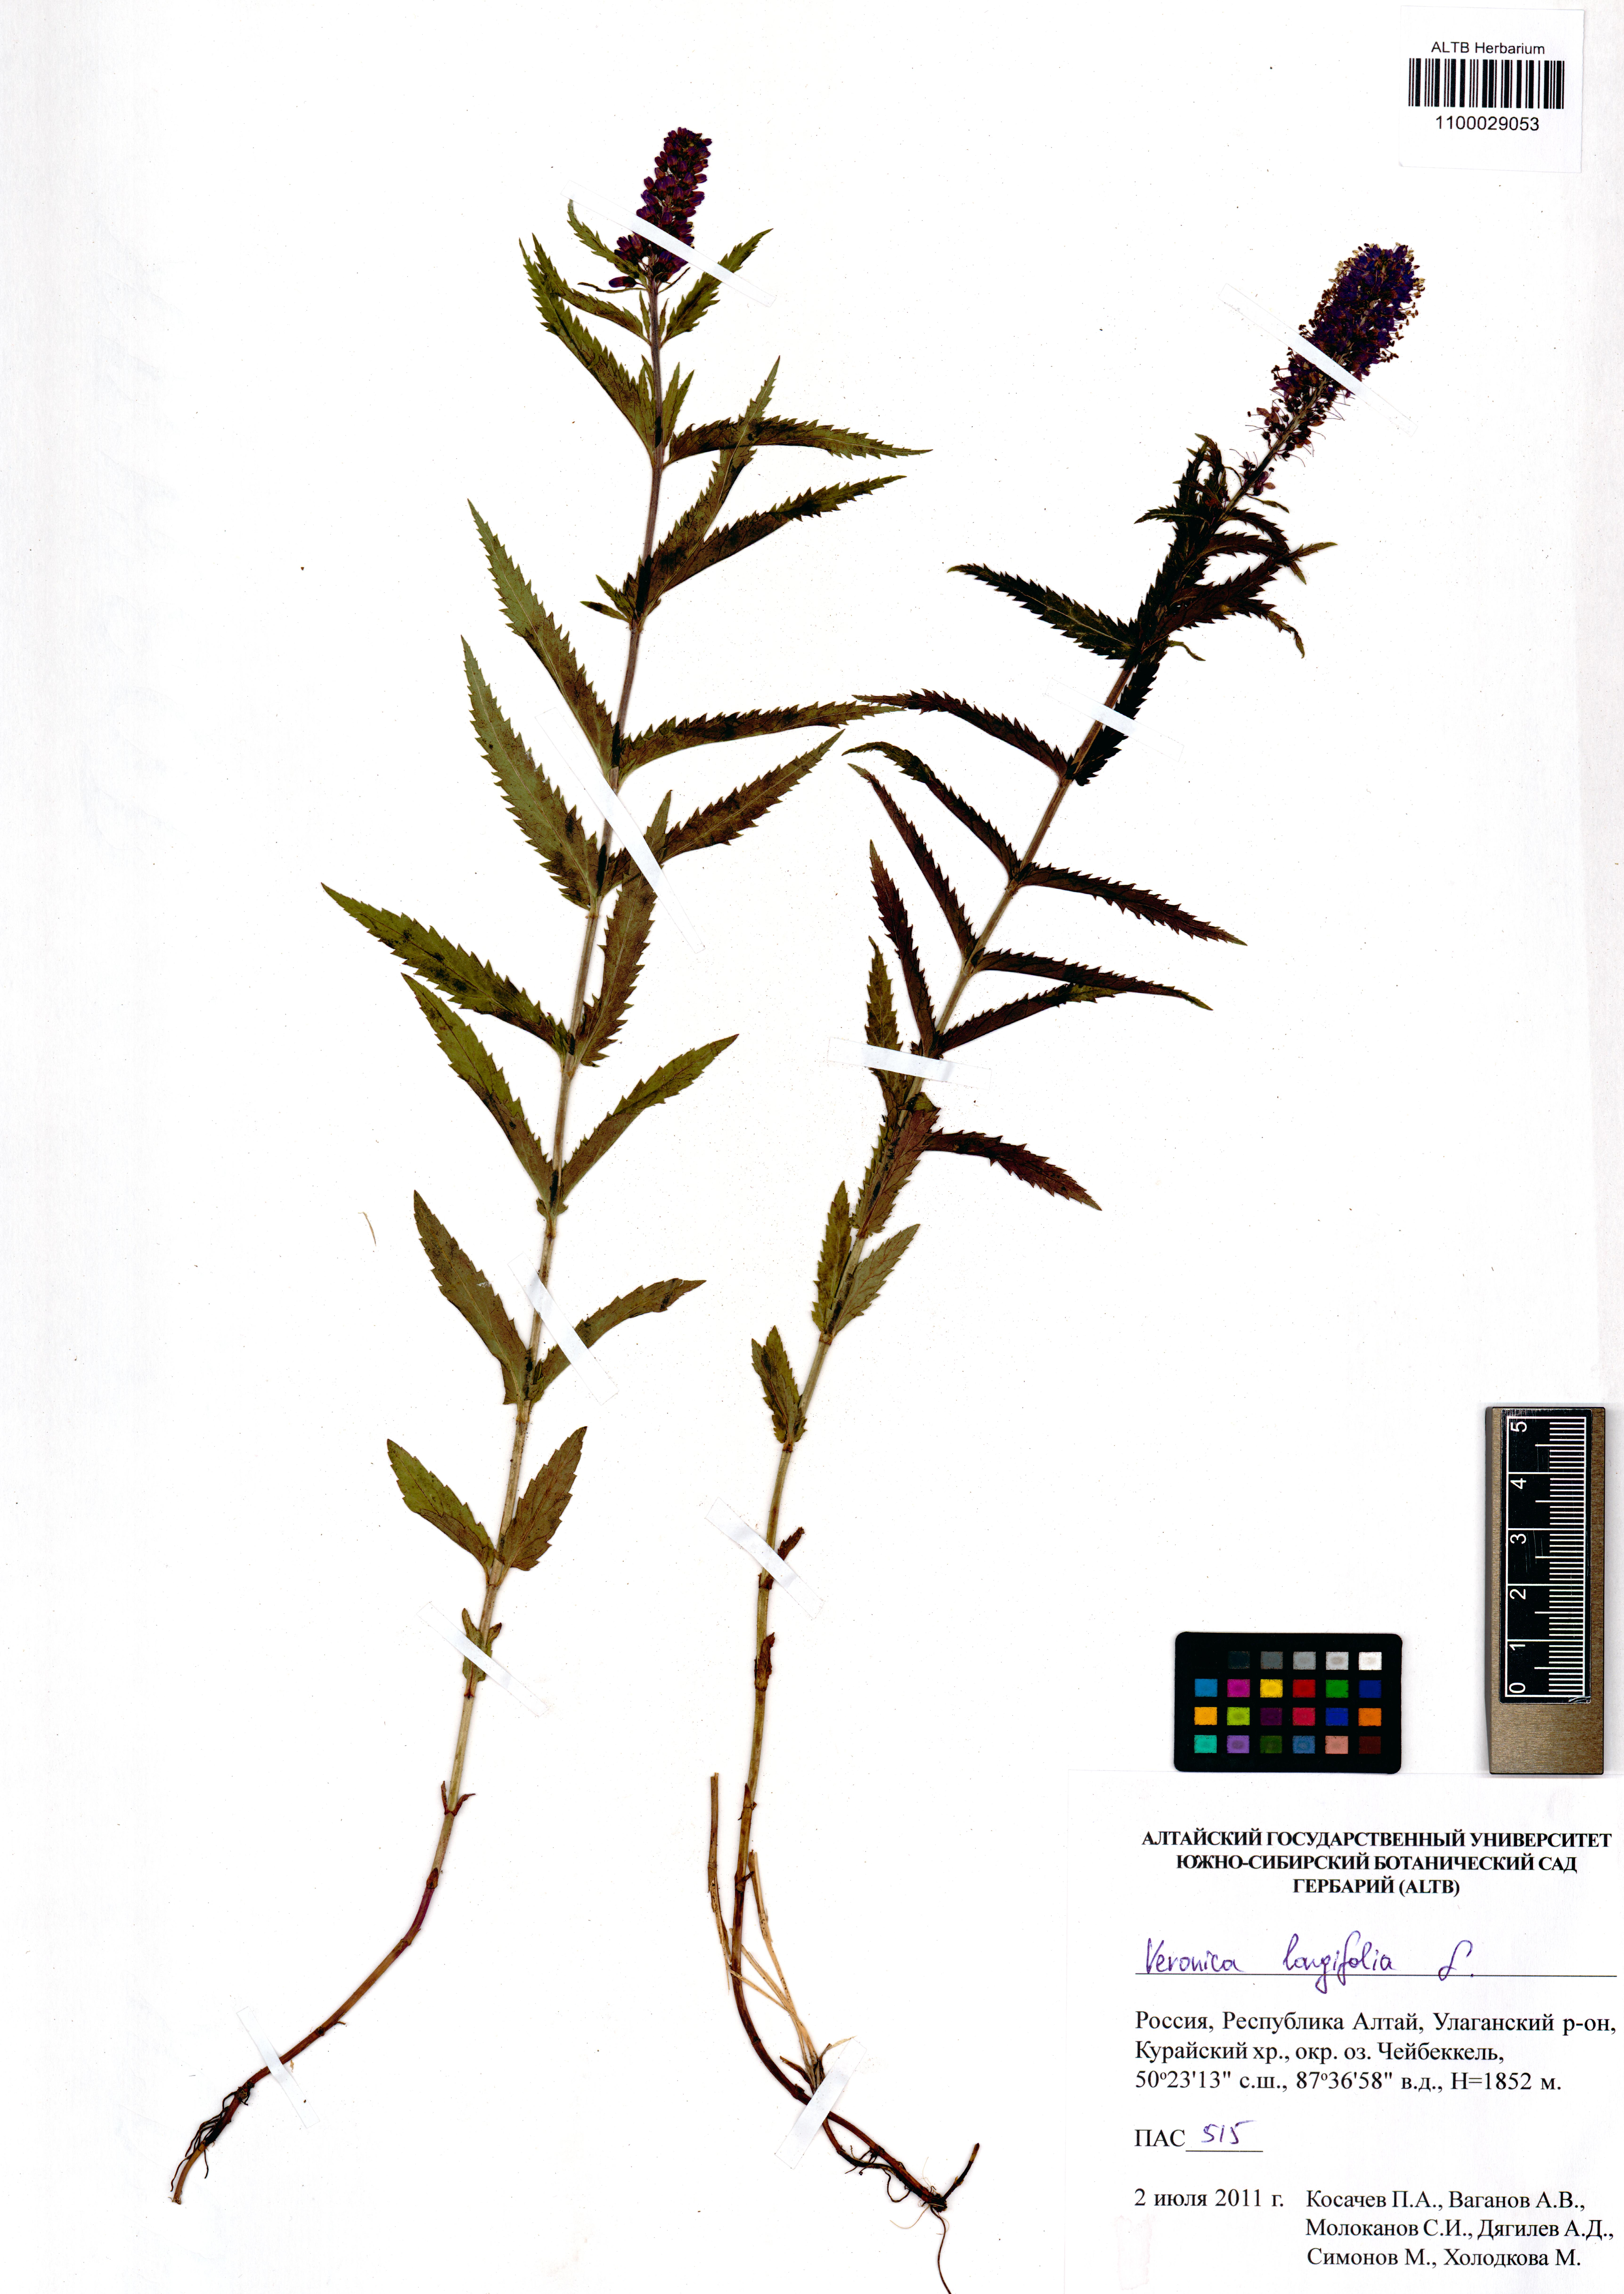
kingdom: Plantae
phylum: Tracheophyta
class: Magnoliopsida
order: Lamiales
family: Plantaginaceae
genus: Veronica
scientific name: Veronica longifolia
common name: Garden speedwell
